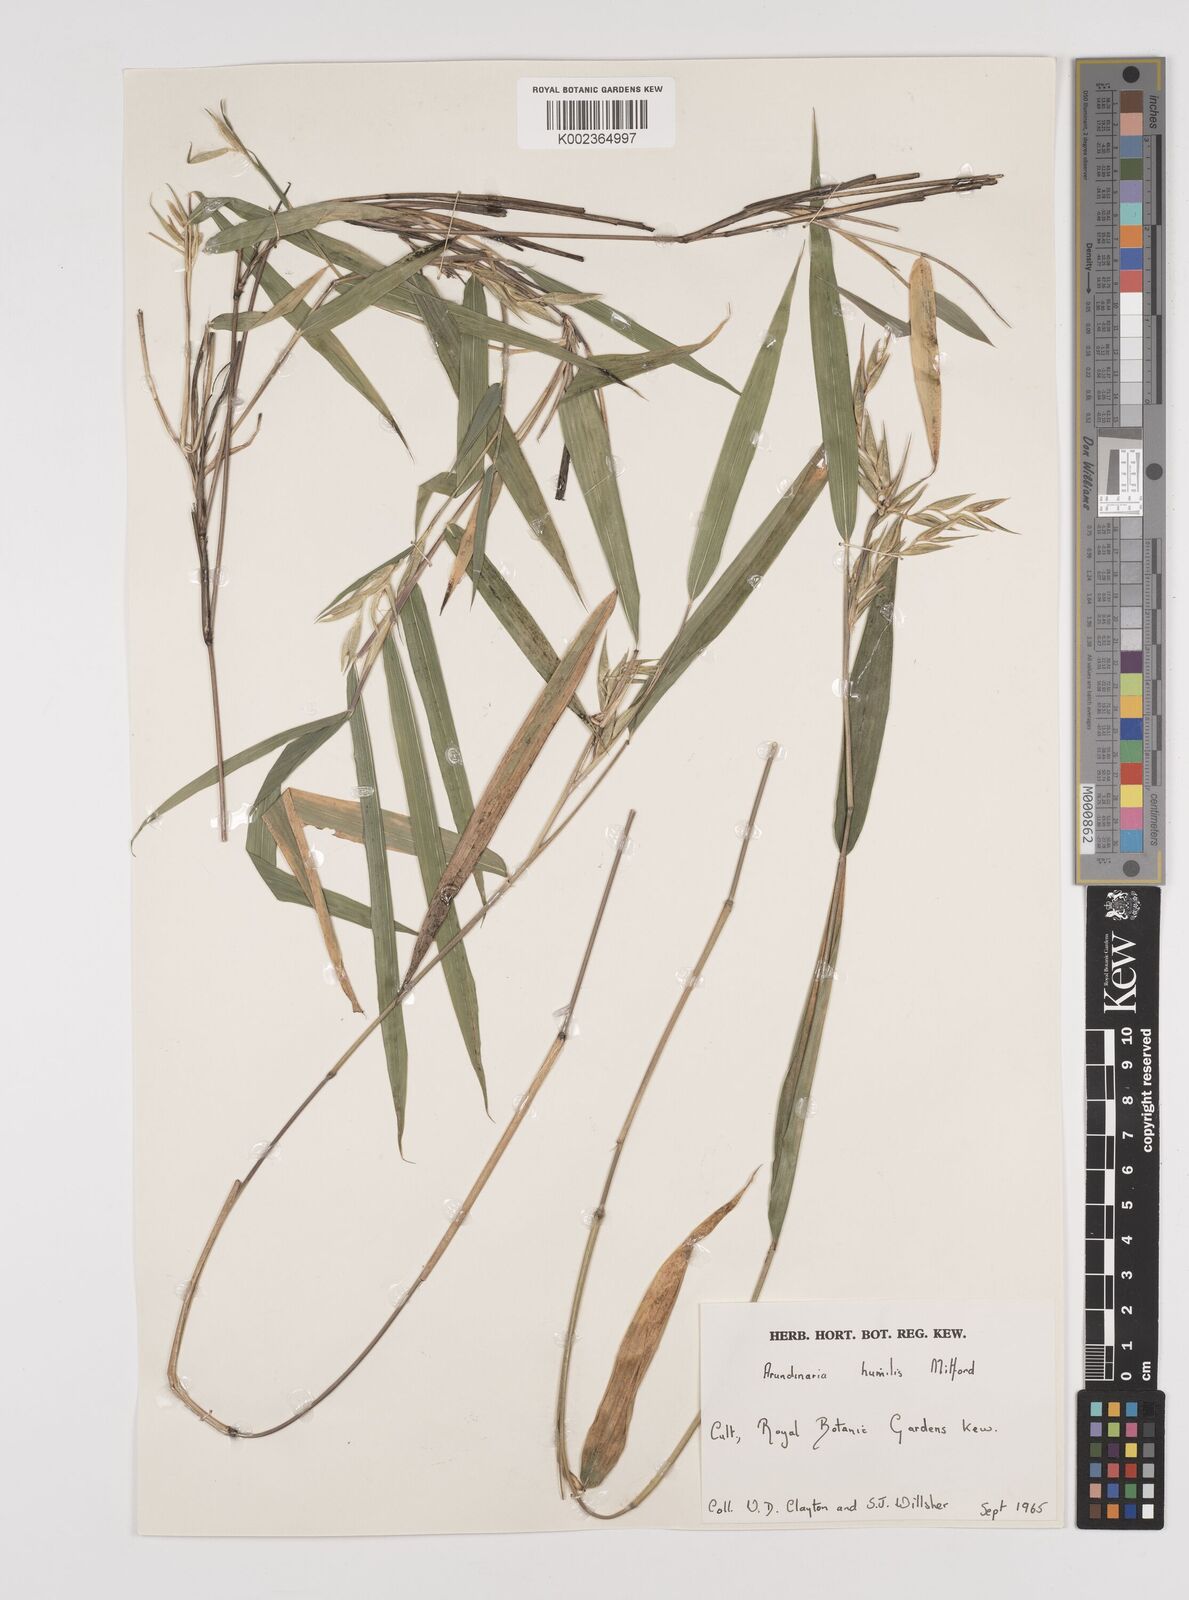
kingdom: Plantae
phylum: Tracheophyta
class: Liliopsida
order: Poales
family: Poaceae
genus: Pseudosasa
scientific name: Pseudosasa humilis
